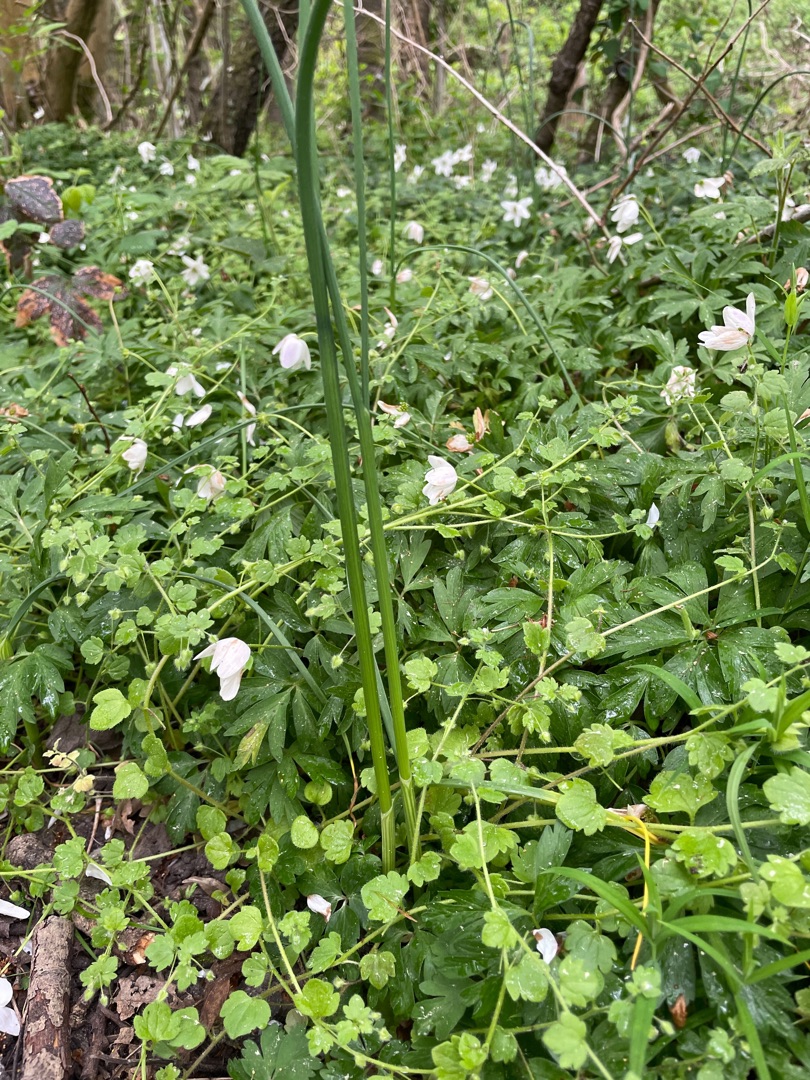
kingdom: Plantae
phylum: Tracheophyta
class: Liliopsida
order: Asparagales
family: Amaryllidaceae
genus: Allium
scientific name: Allium oleraceum
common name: Vild løg
